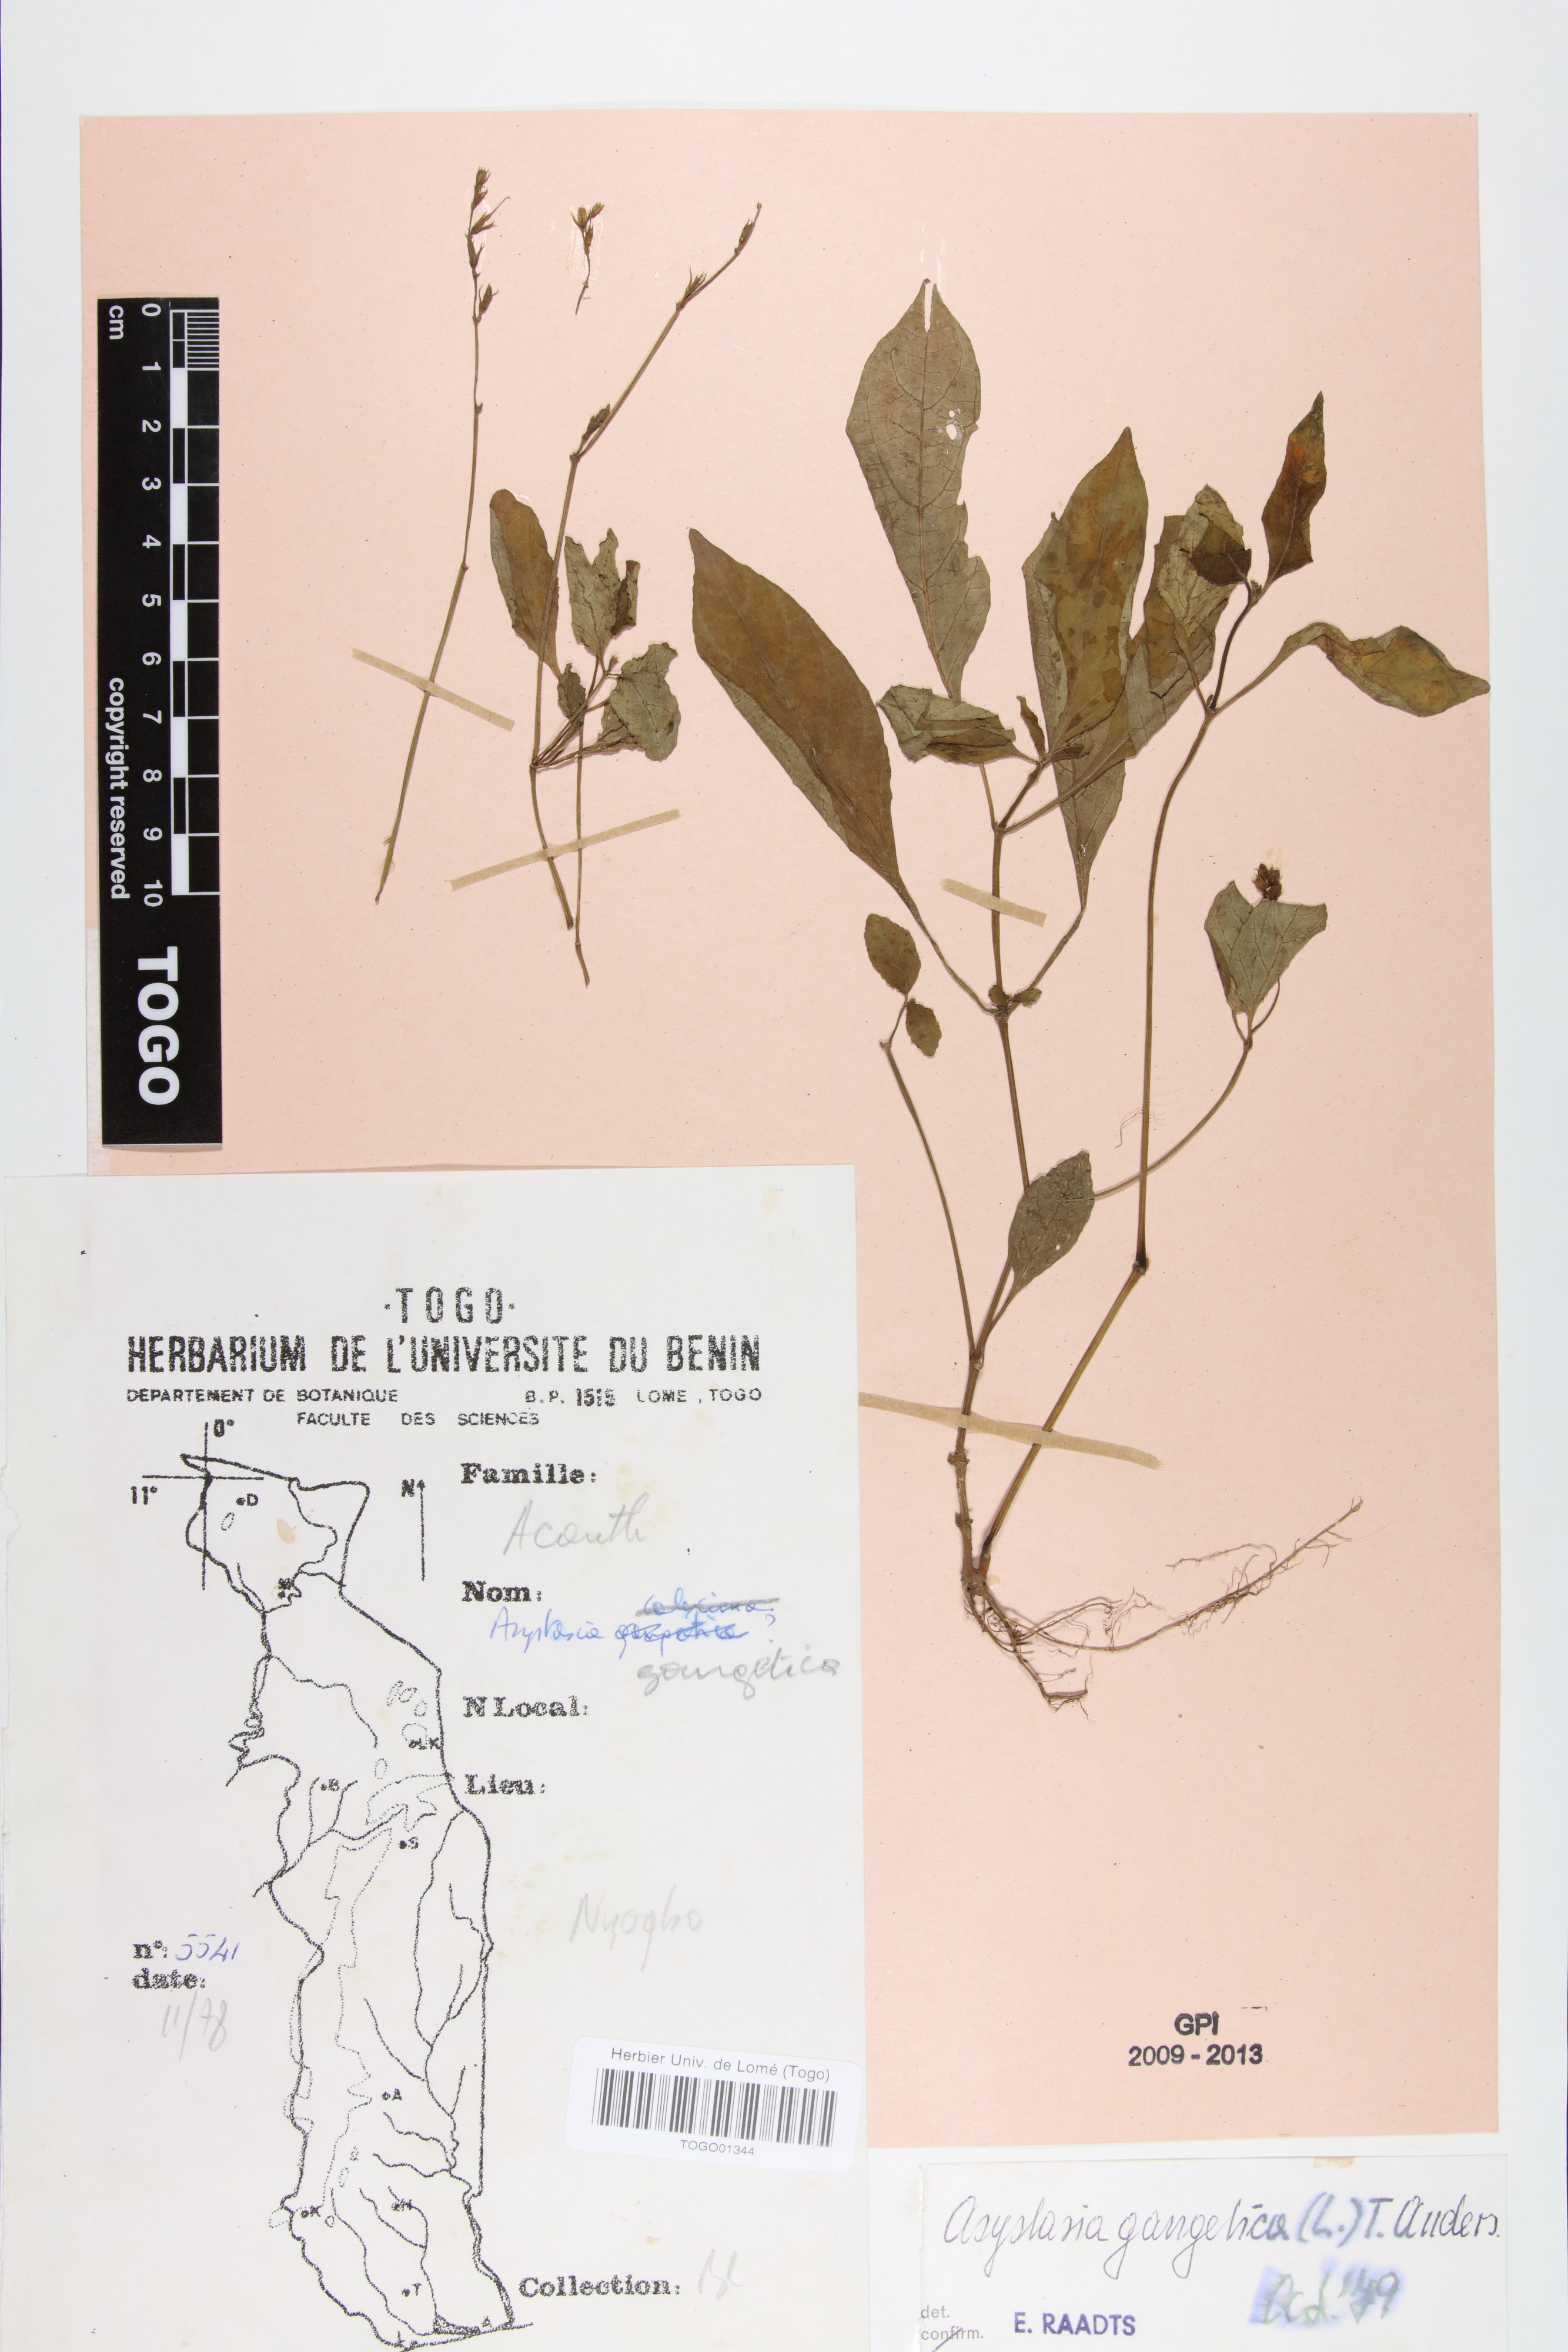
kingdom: Plantae
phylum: Tracheophyta
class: Magnoliopsida
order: Lamiales
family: Acanthaceae
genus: Asystasia
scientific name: Asystasia gangetica
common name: Chinese violet
